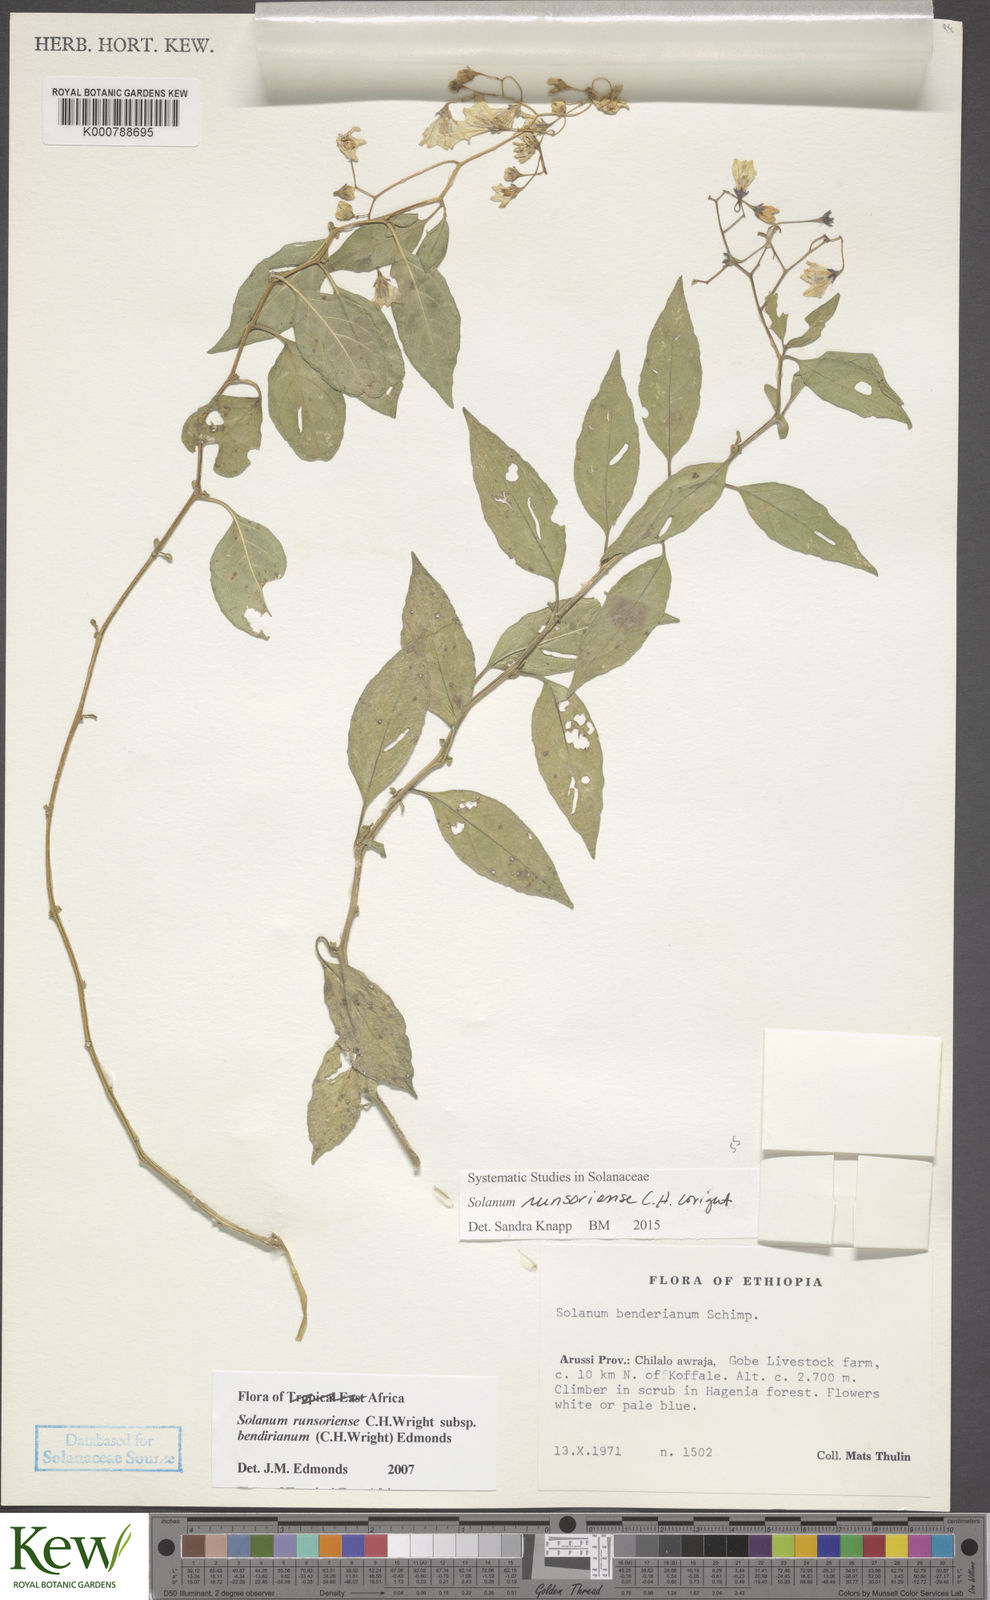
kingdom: Plantae
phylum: Tracheophyta
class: Magnoliopsida
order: Solanales
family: Solanaceae
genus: Solanum
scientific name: Solanum runsoriense
